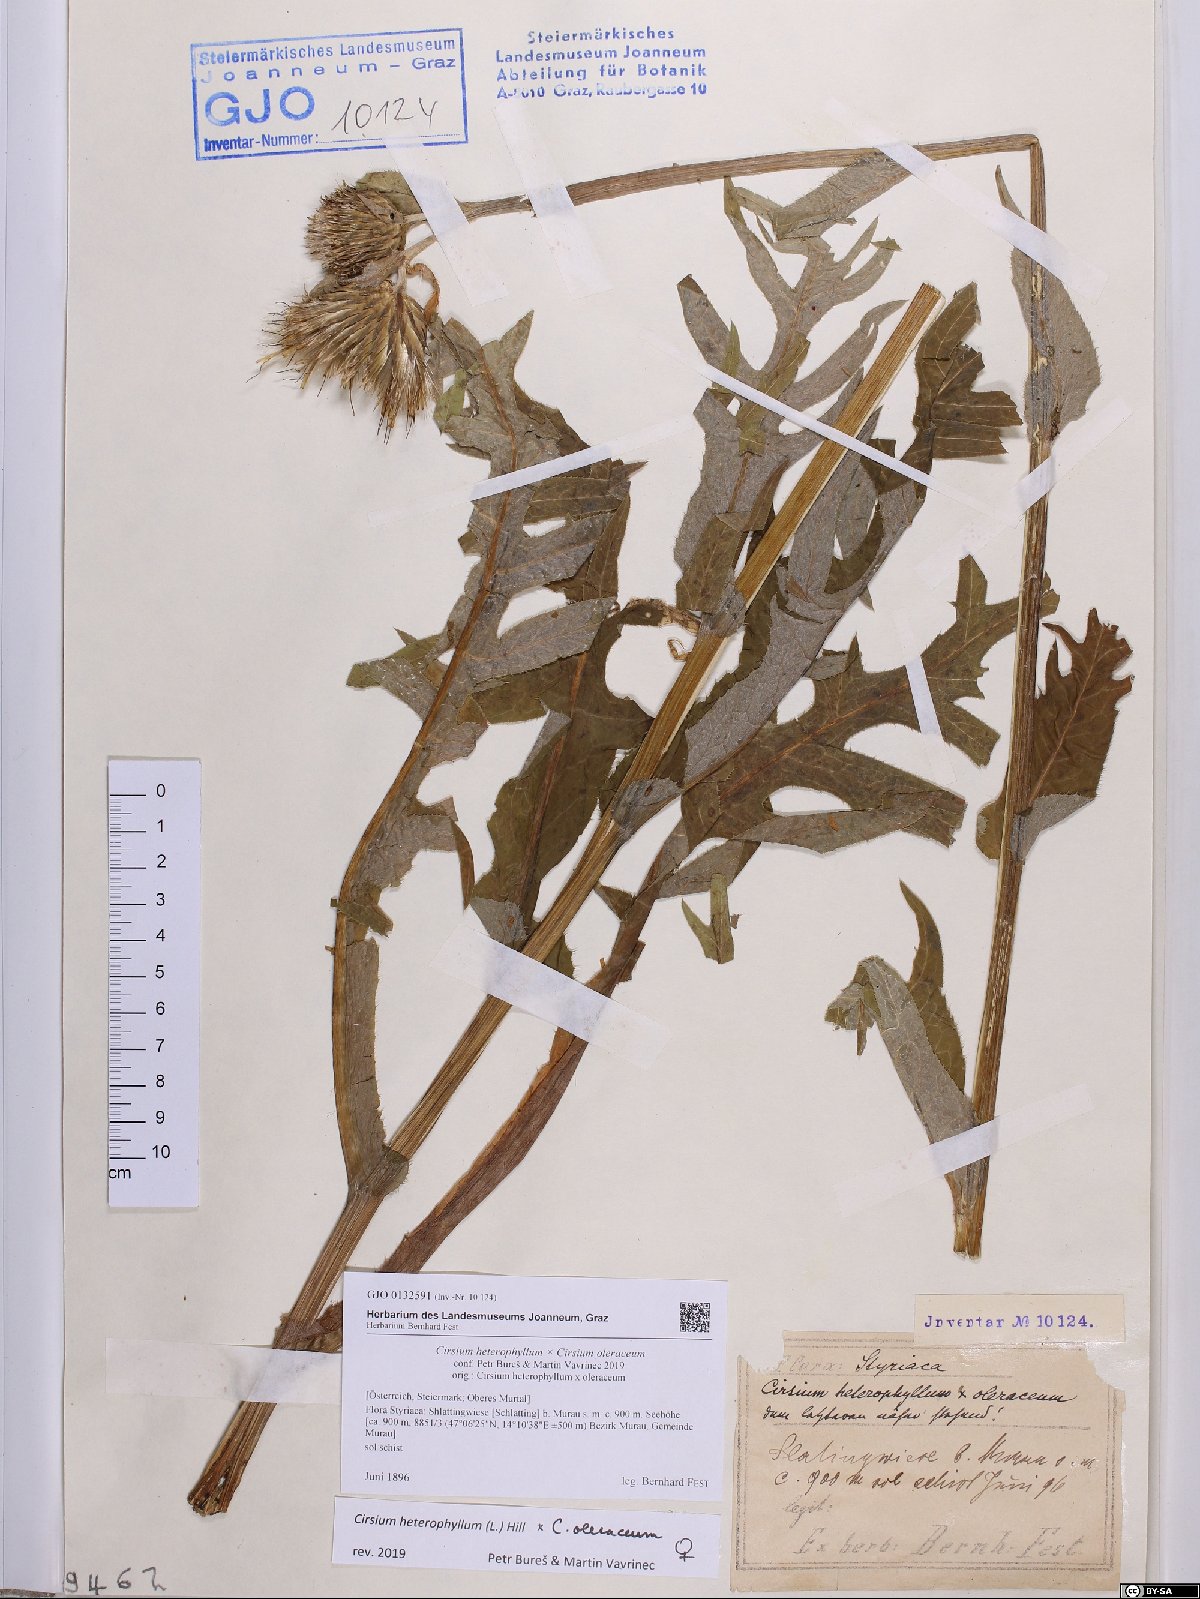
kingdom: Plantae
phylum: Tracheophyta
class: Magnoliopsida
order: Asterales
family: Asteraceae
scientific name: Asteraceae
